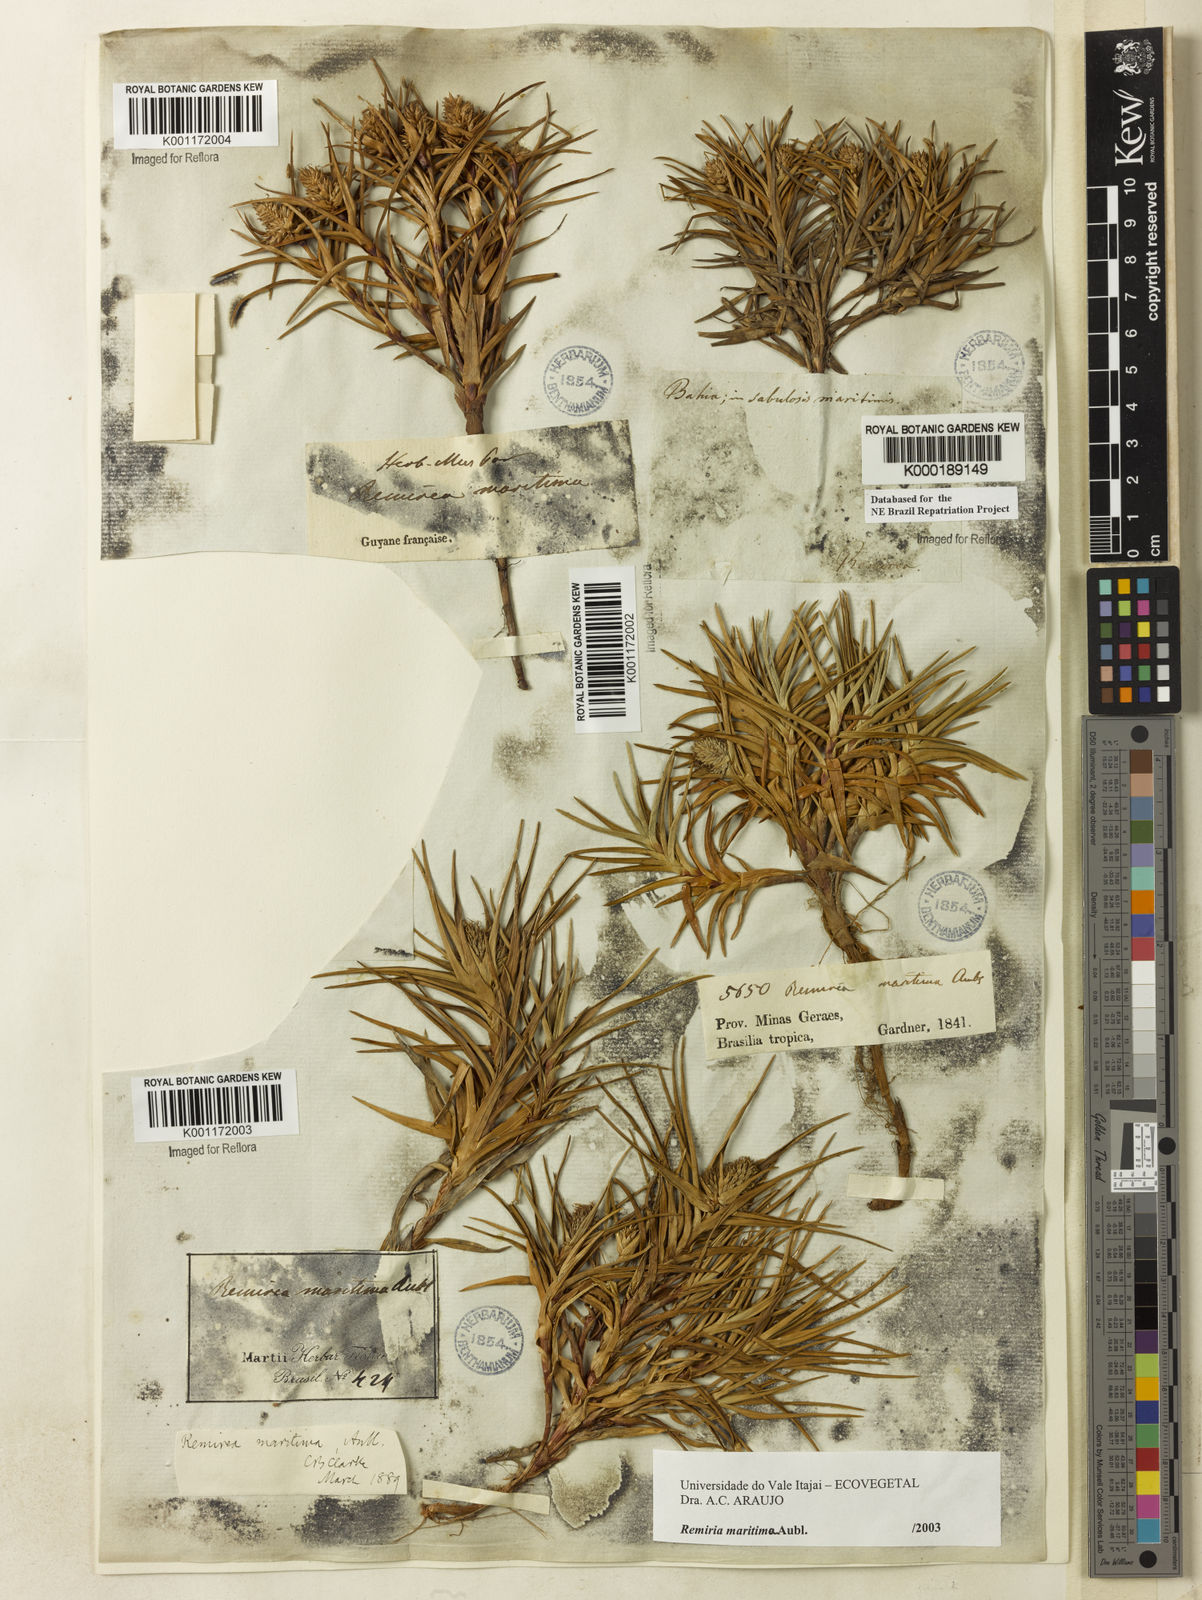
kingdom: Plantae
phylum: Tracheophyta
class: Liliopsida
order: Poales
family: Cyperaceae
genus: Cyperus
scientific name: Cyperus pedunculatus
